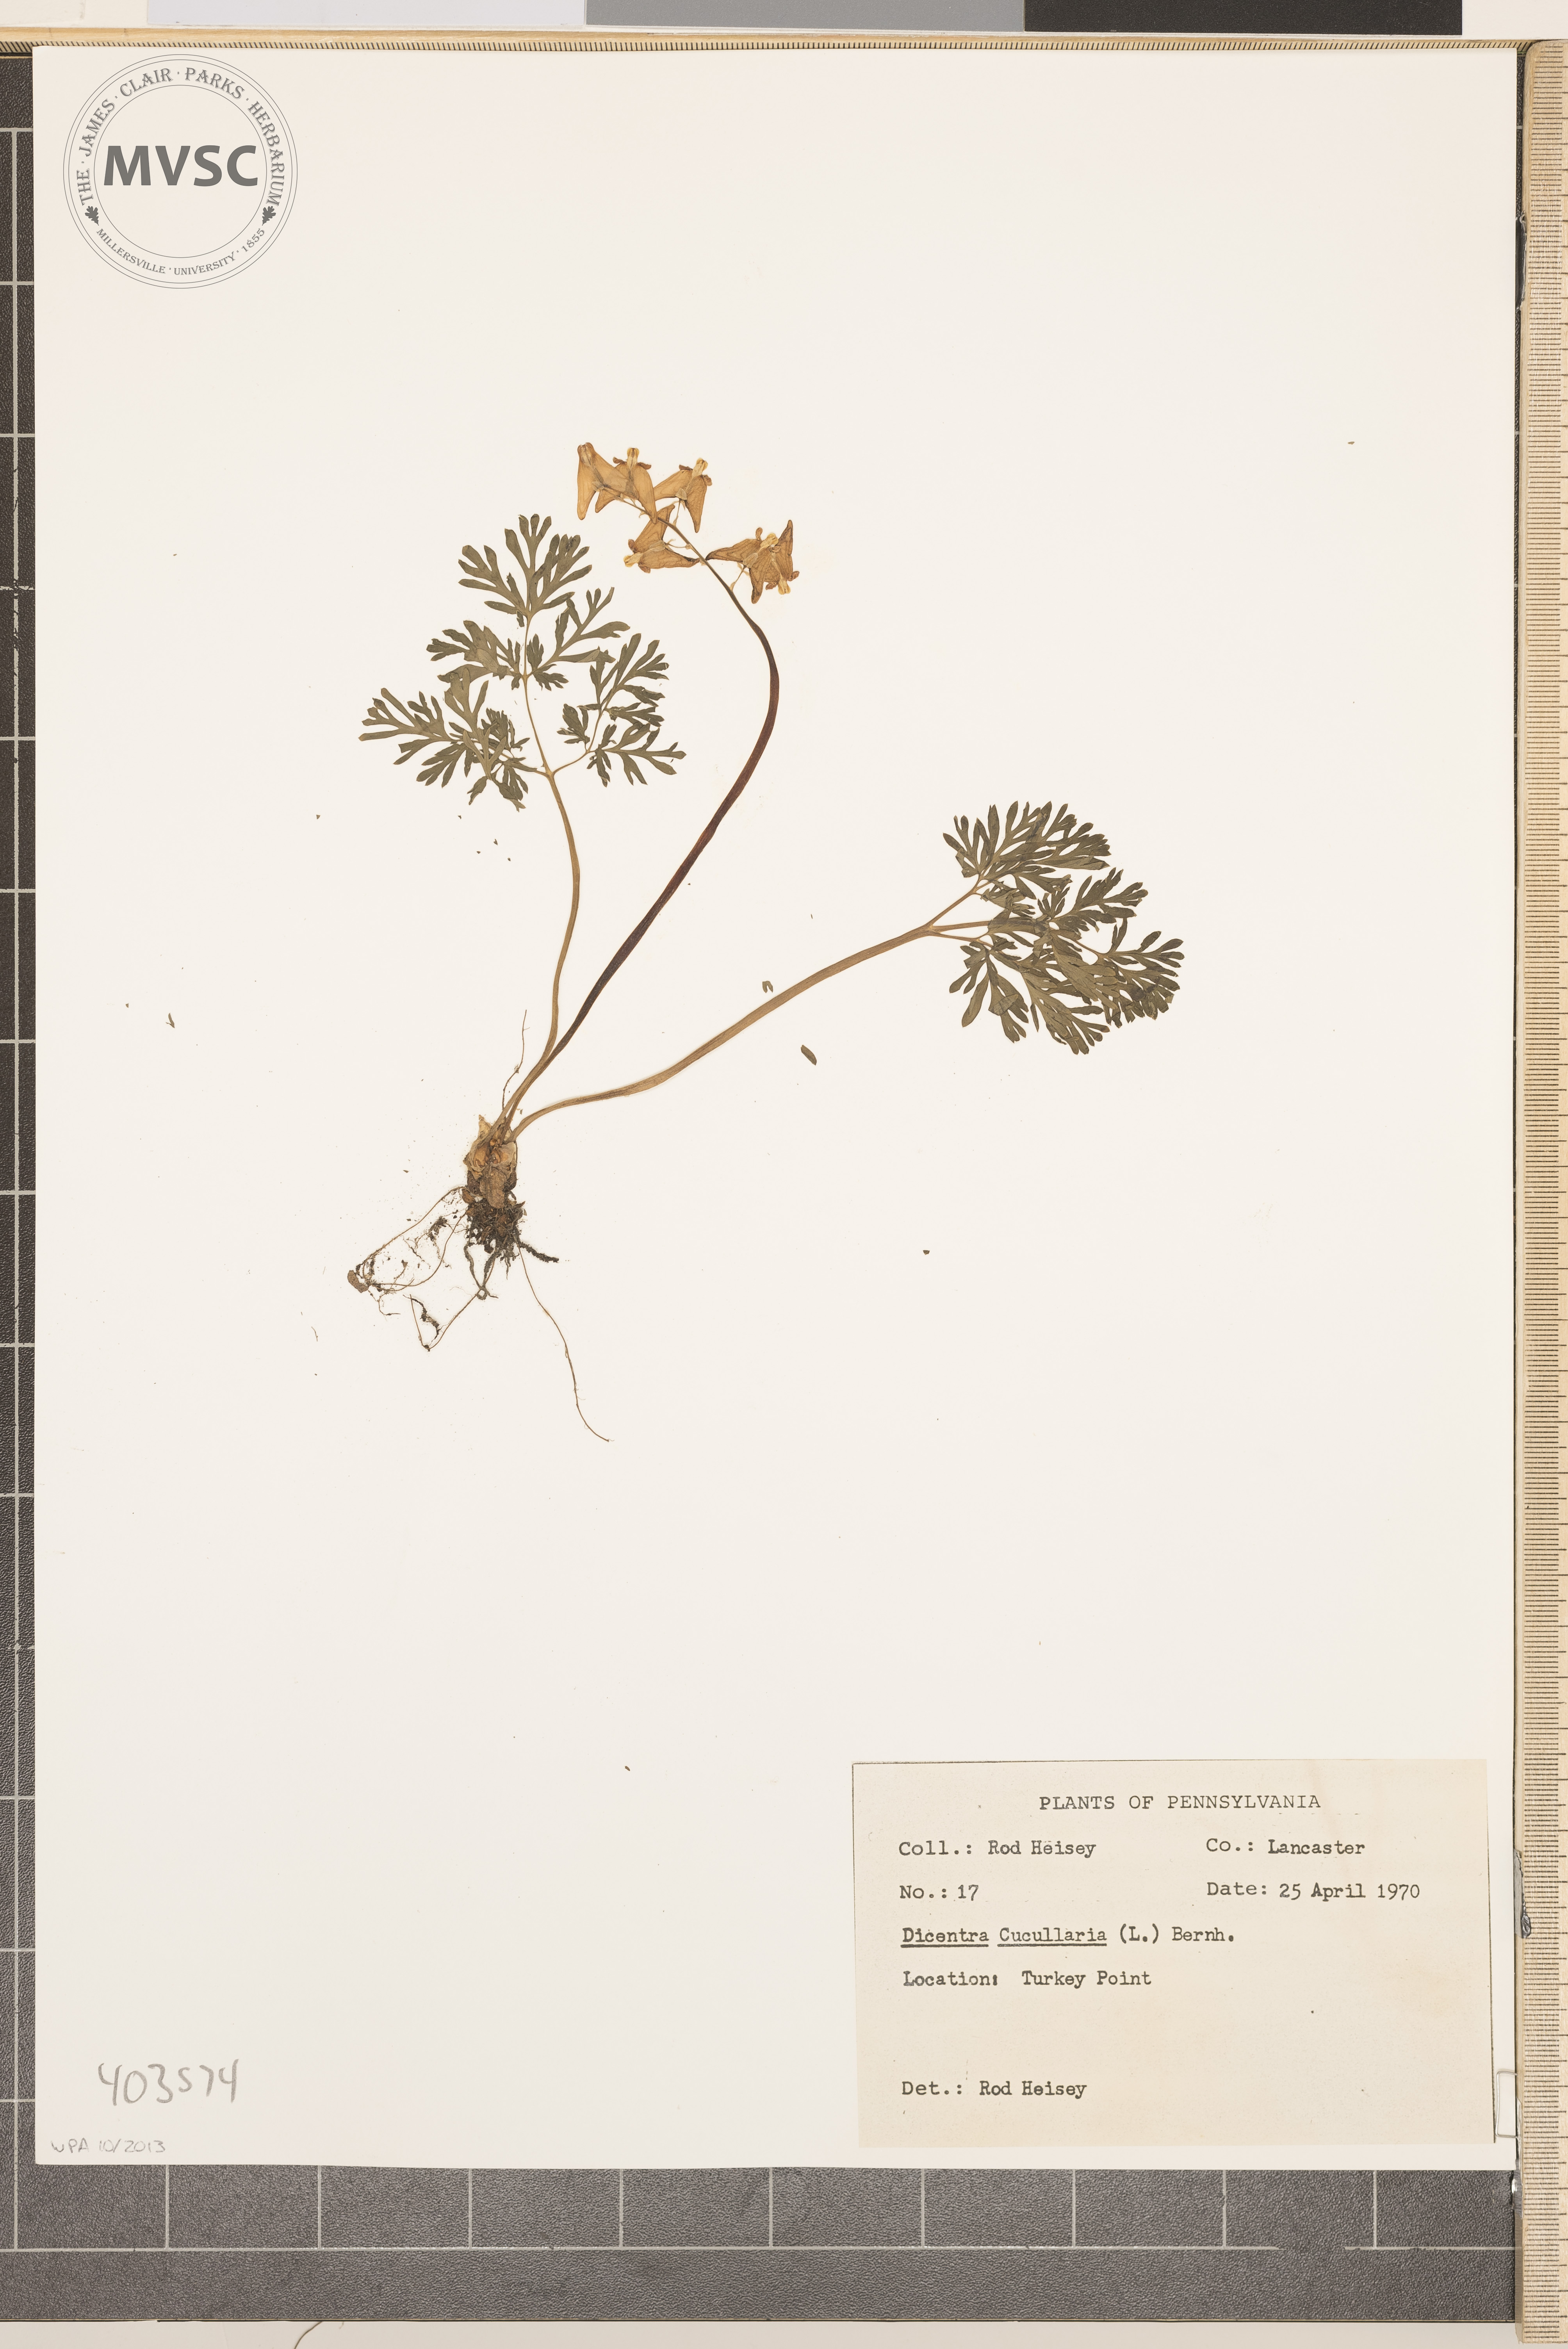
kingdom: Plantae
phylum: Tracheophyta
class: Magnoliopsida
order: Ranunculales
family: Papaveraceae
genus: Dicentra
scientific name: Dicentra cucullaria
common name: Dutchman's Breeches
